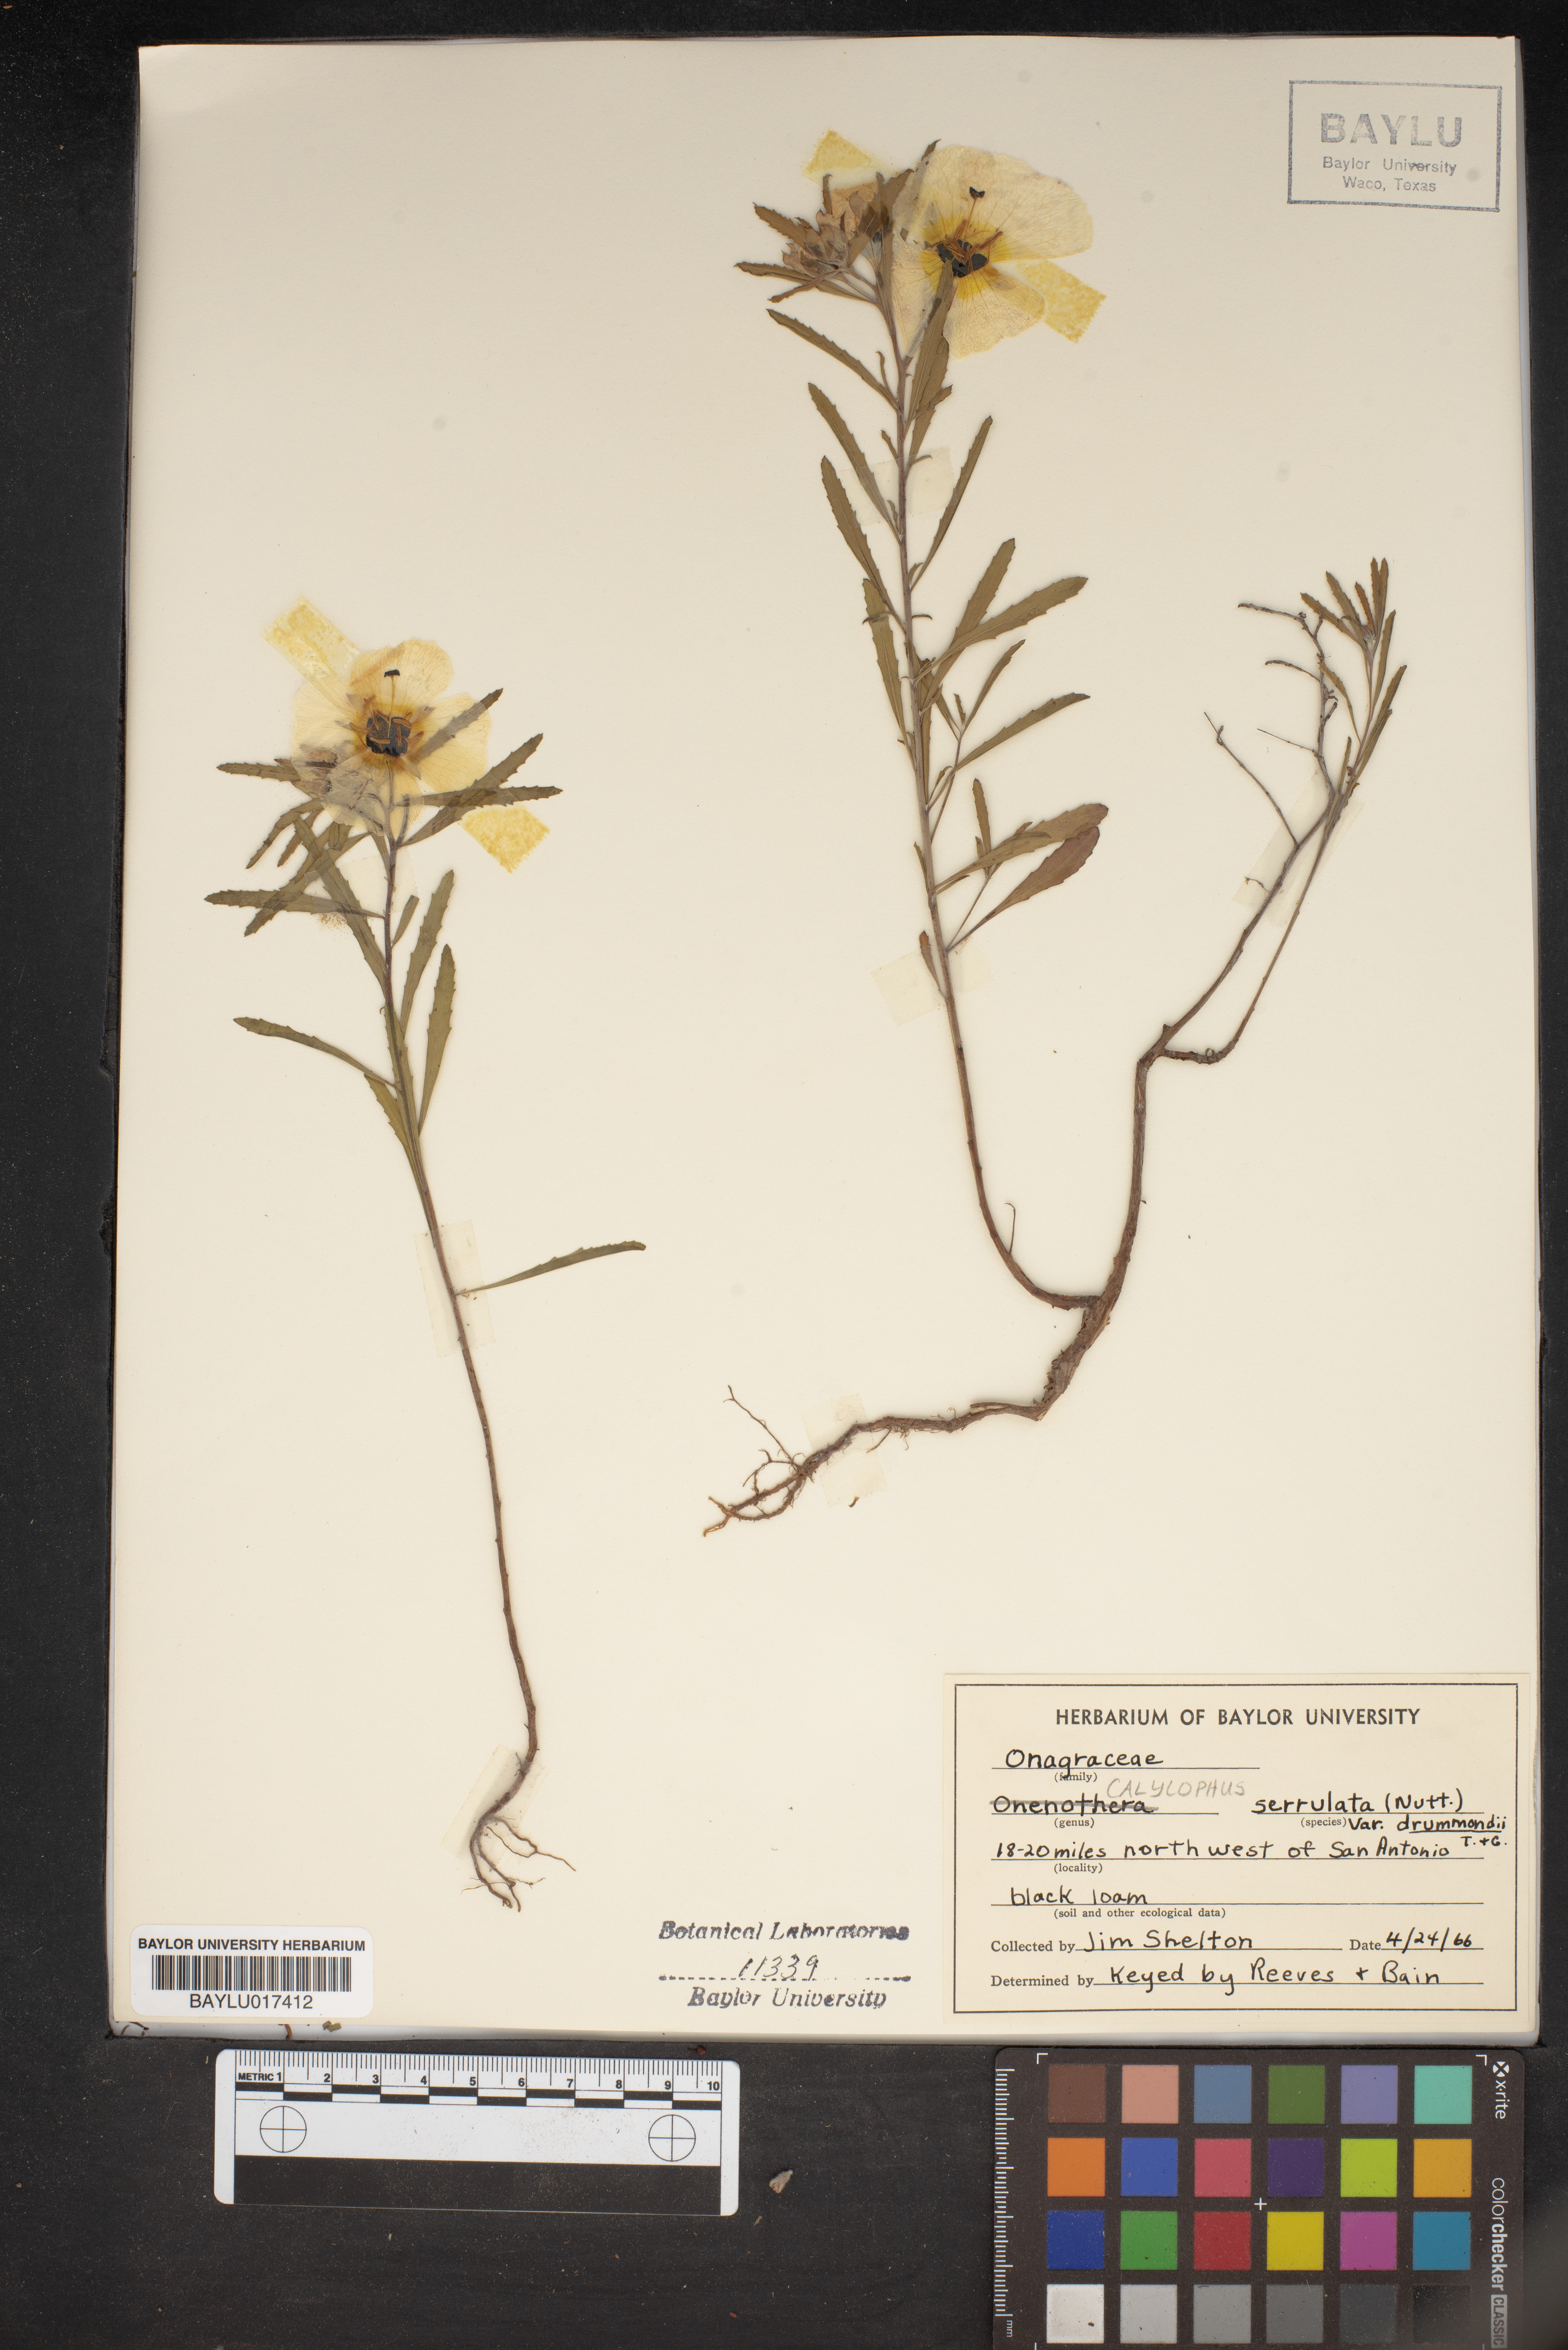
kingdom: Plantae
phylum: Tracheophyta
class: Magnoliopsida
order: Myrtales
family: Onagraceae
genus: Oenothera
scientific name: Oenothera serrulata
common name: Half-shrub calylophus
